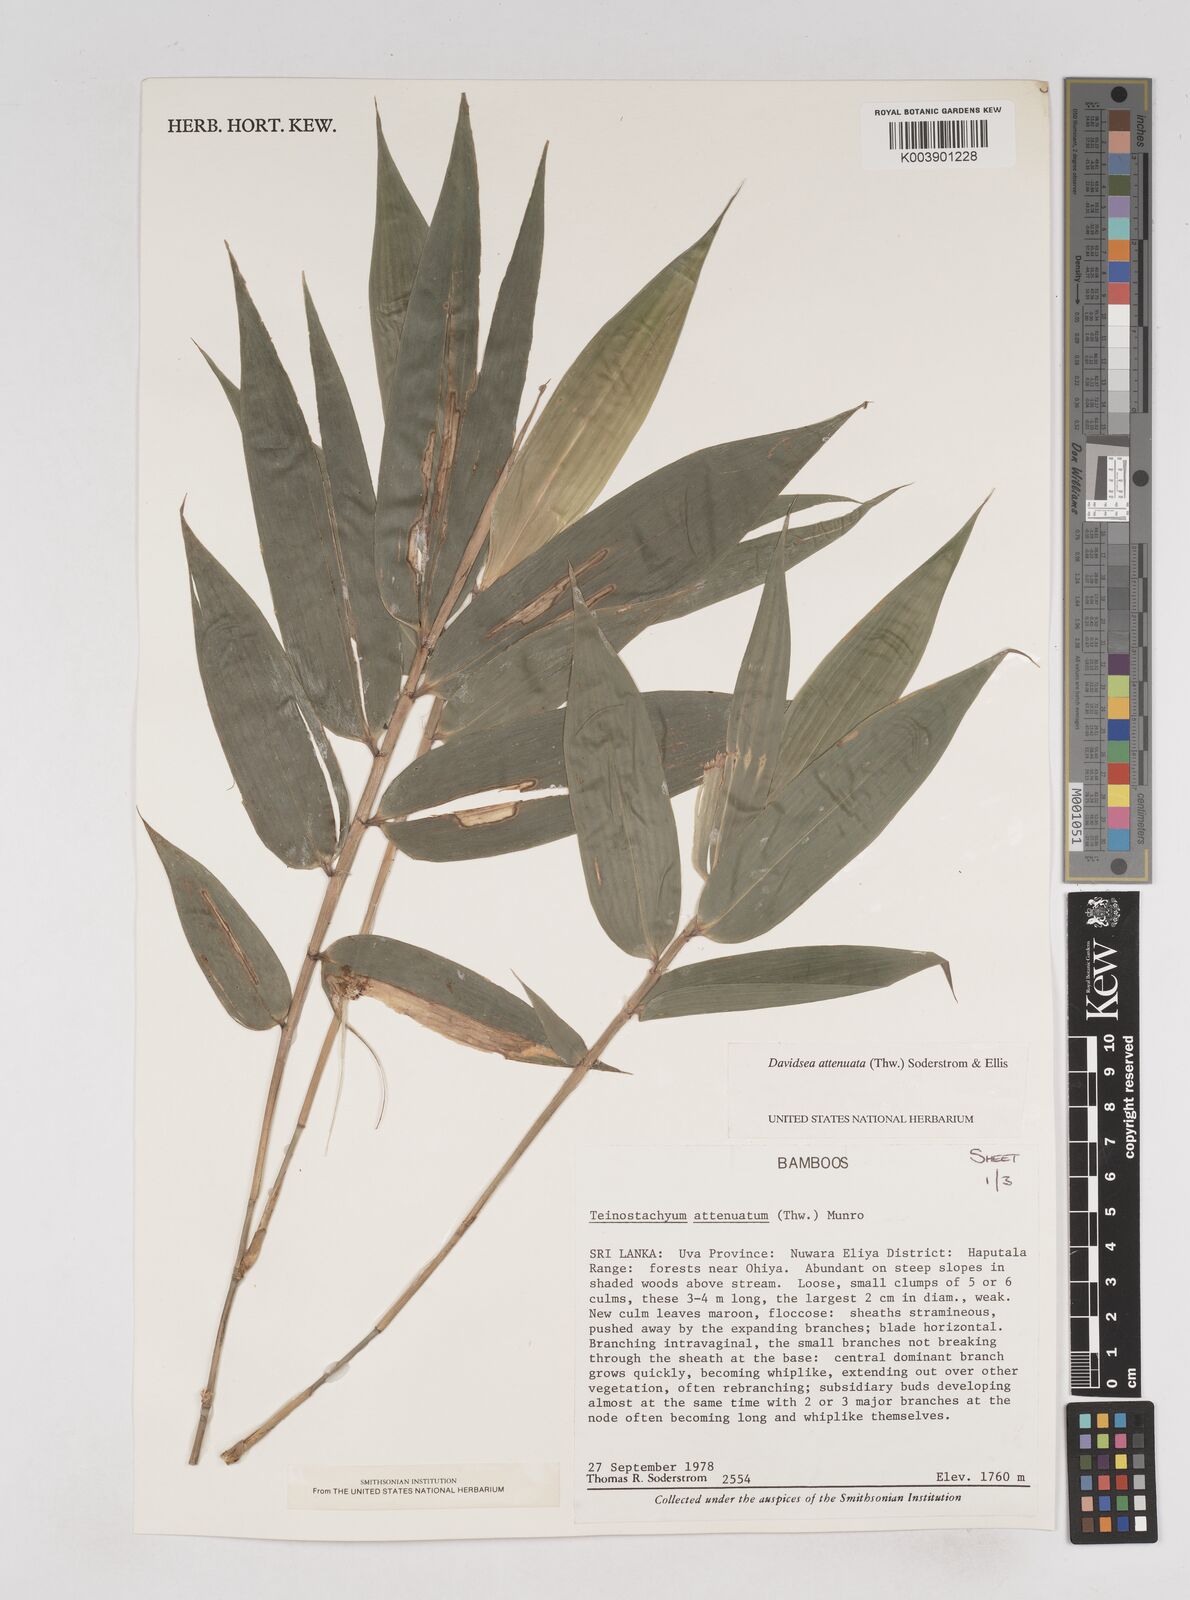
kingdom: Plantae
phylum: Tracheophyta
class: Liliopsida
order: Poales
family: Poaceae
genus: Davidsea
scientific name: Davidsea
